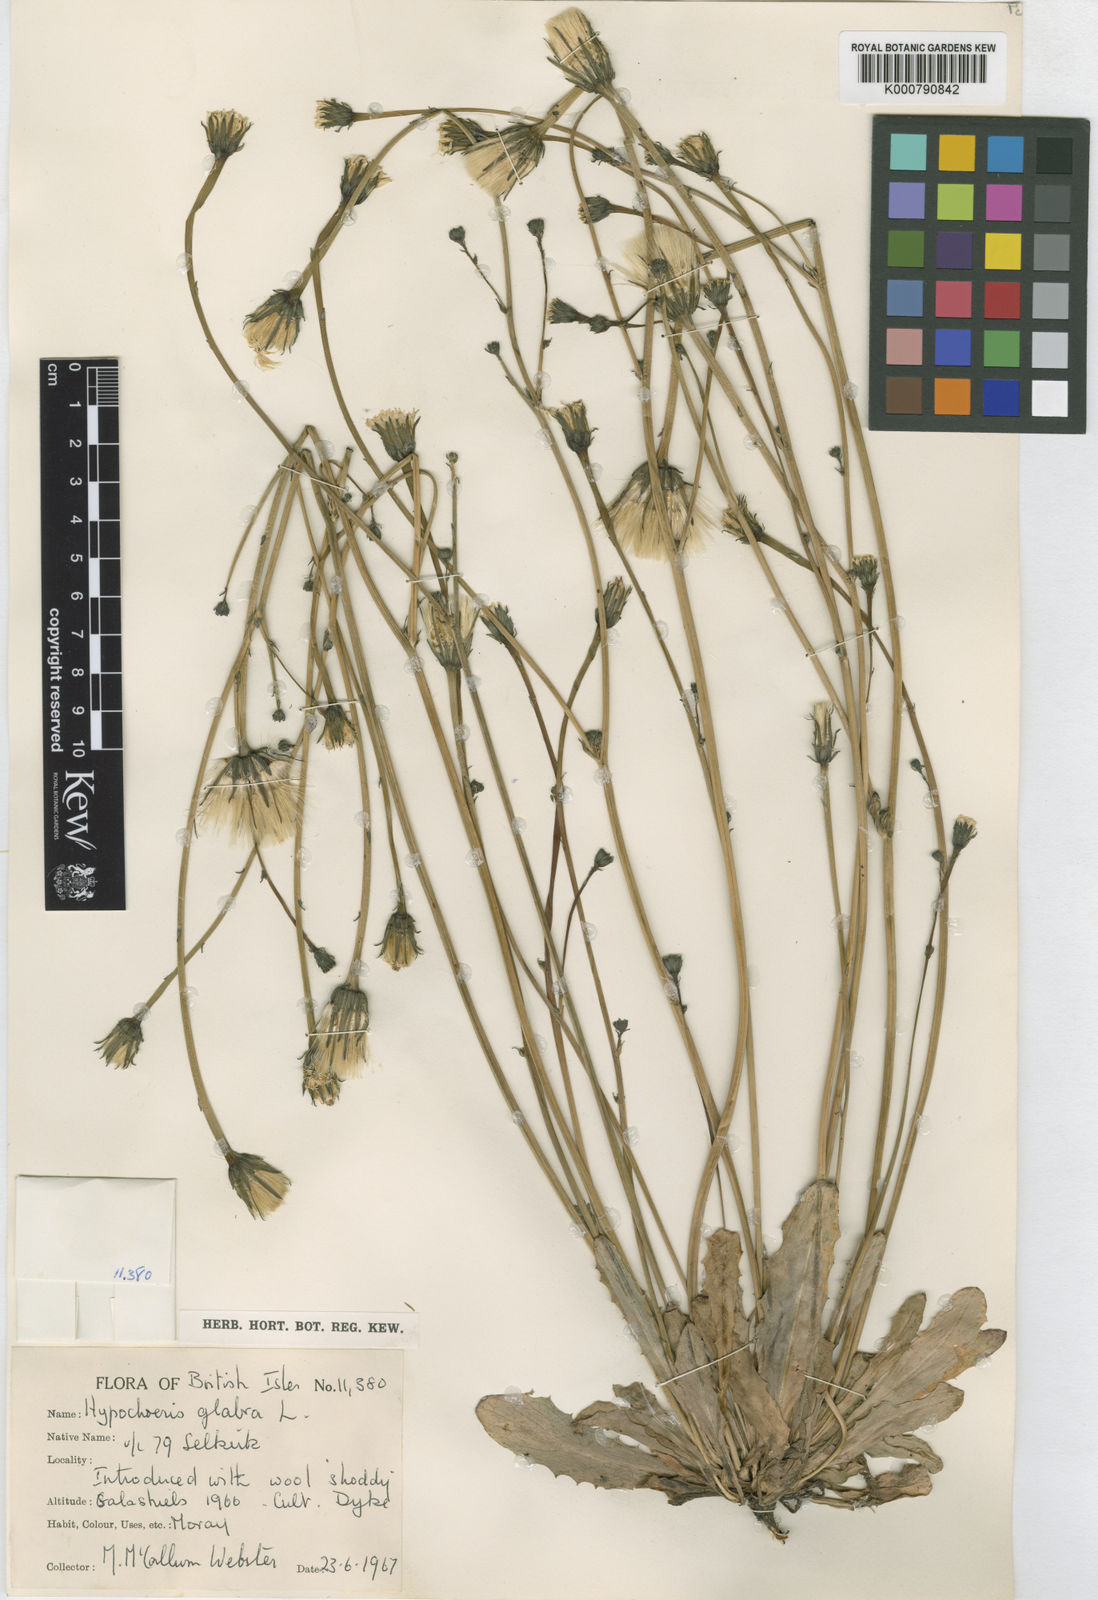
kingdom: Plantae
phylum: Tracheophyta
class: Magnoliopsida
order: Asterales
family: Asteraceae
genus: Hypochaeris
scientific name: Hypochaeris glabra
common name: Smooth catsear
